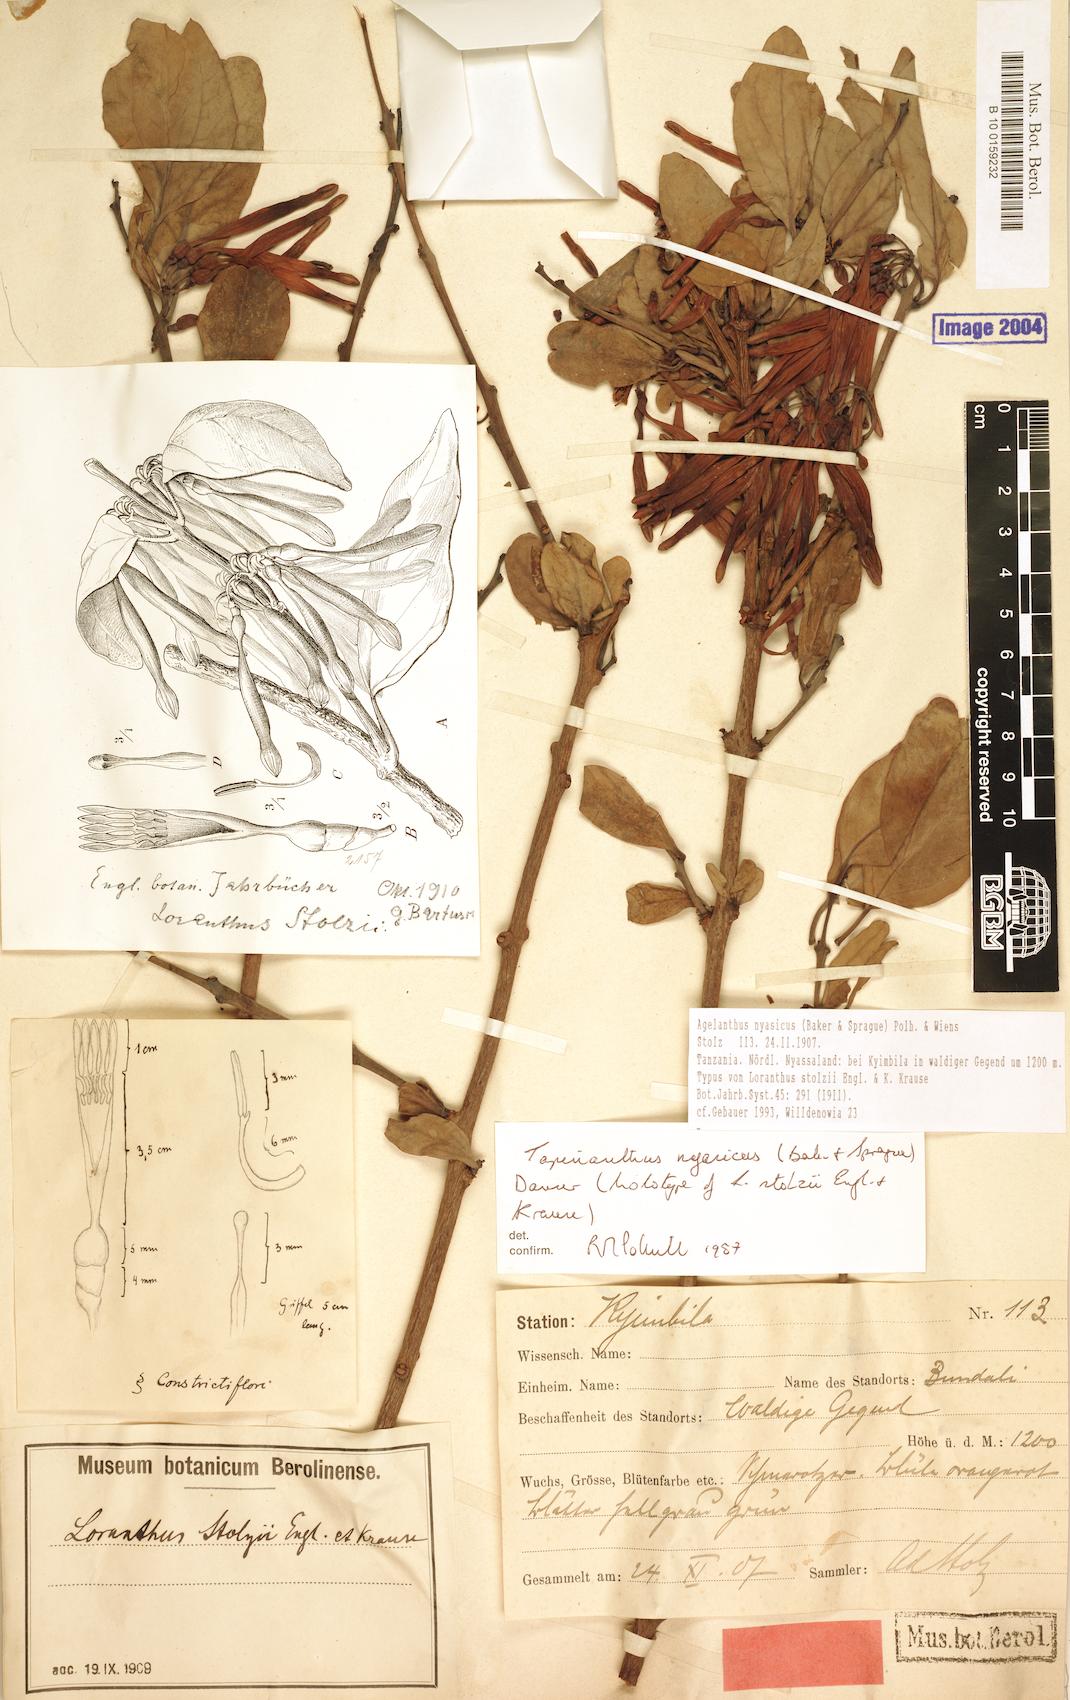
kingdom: Plantae
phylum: Tracheophyta
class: Magnoliopsida
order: Santalales
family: Loranthaceae
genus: Agelanthus
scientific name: Agelanthus nyasicus
